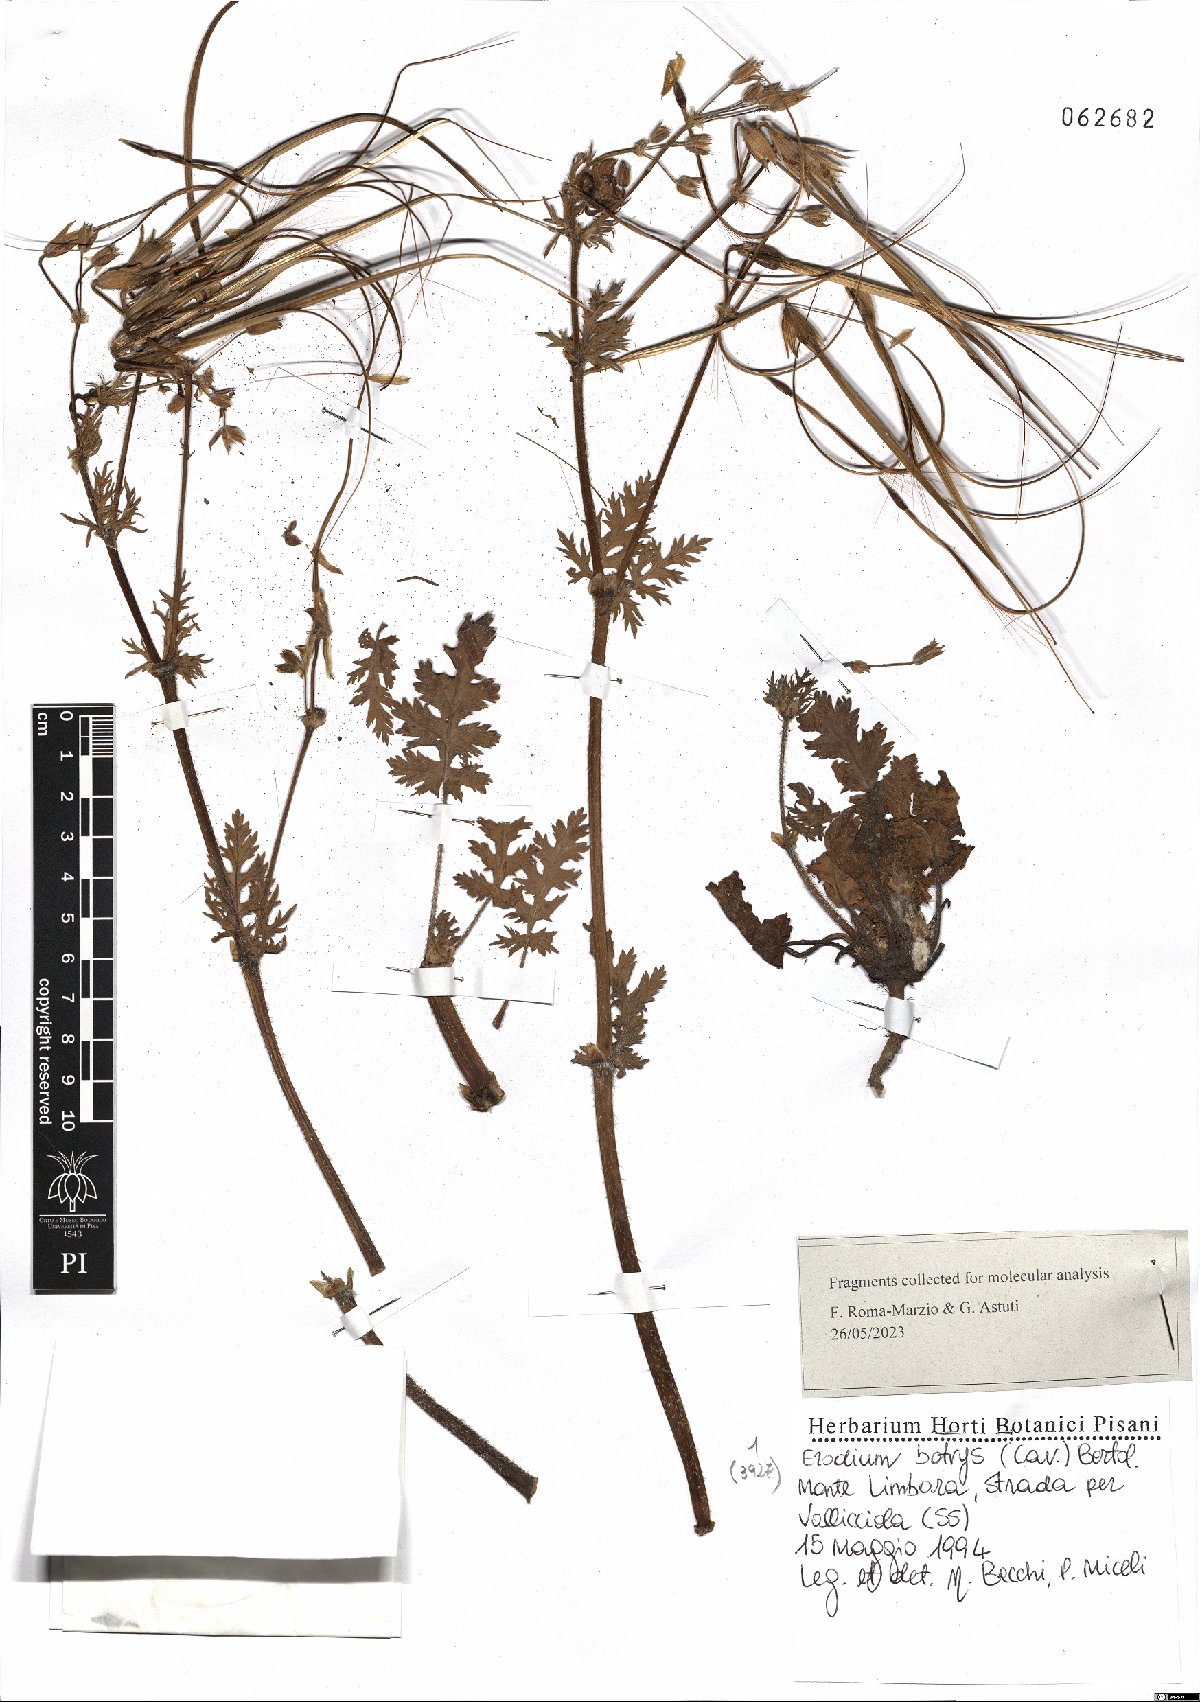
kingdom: Plantae
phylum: Tracheophyta
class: Magnoliopsida
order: Geraniales
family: Geraniaceae
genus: Erodium
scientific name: Erodium botrys
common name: Mediterranean stork's-bill
